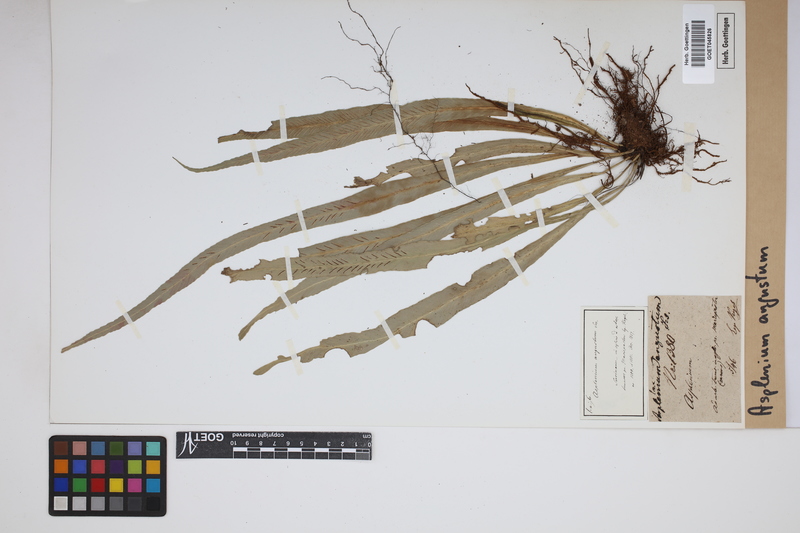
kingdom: Plantae
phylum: Tracheophyta
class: Polypodiopsida
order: Polypodiales
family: Aspleniaceae
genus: Asplenium
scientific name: Asplenium angustum
